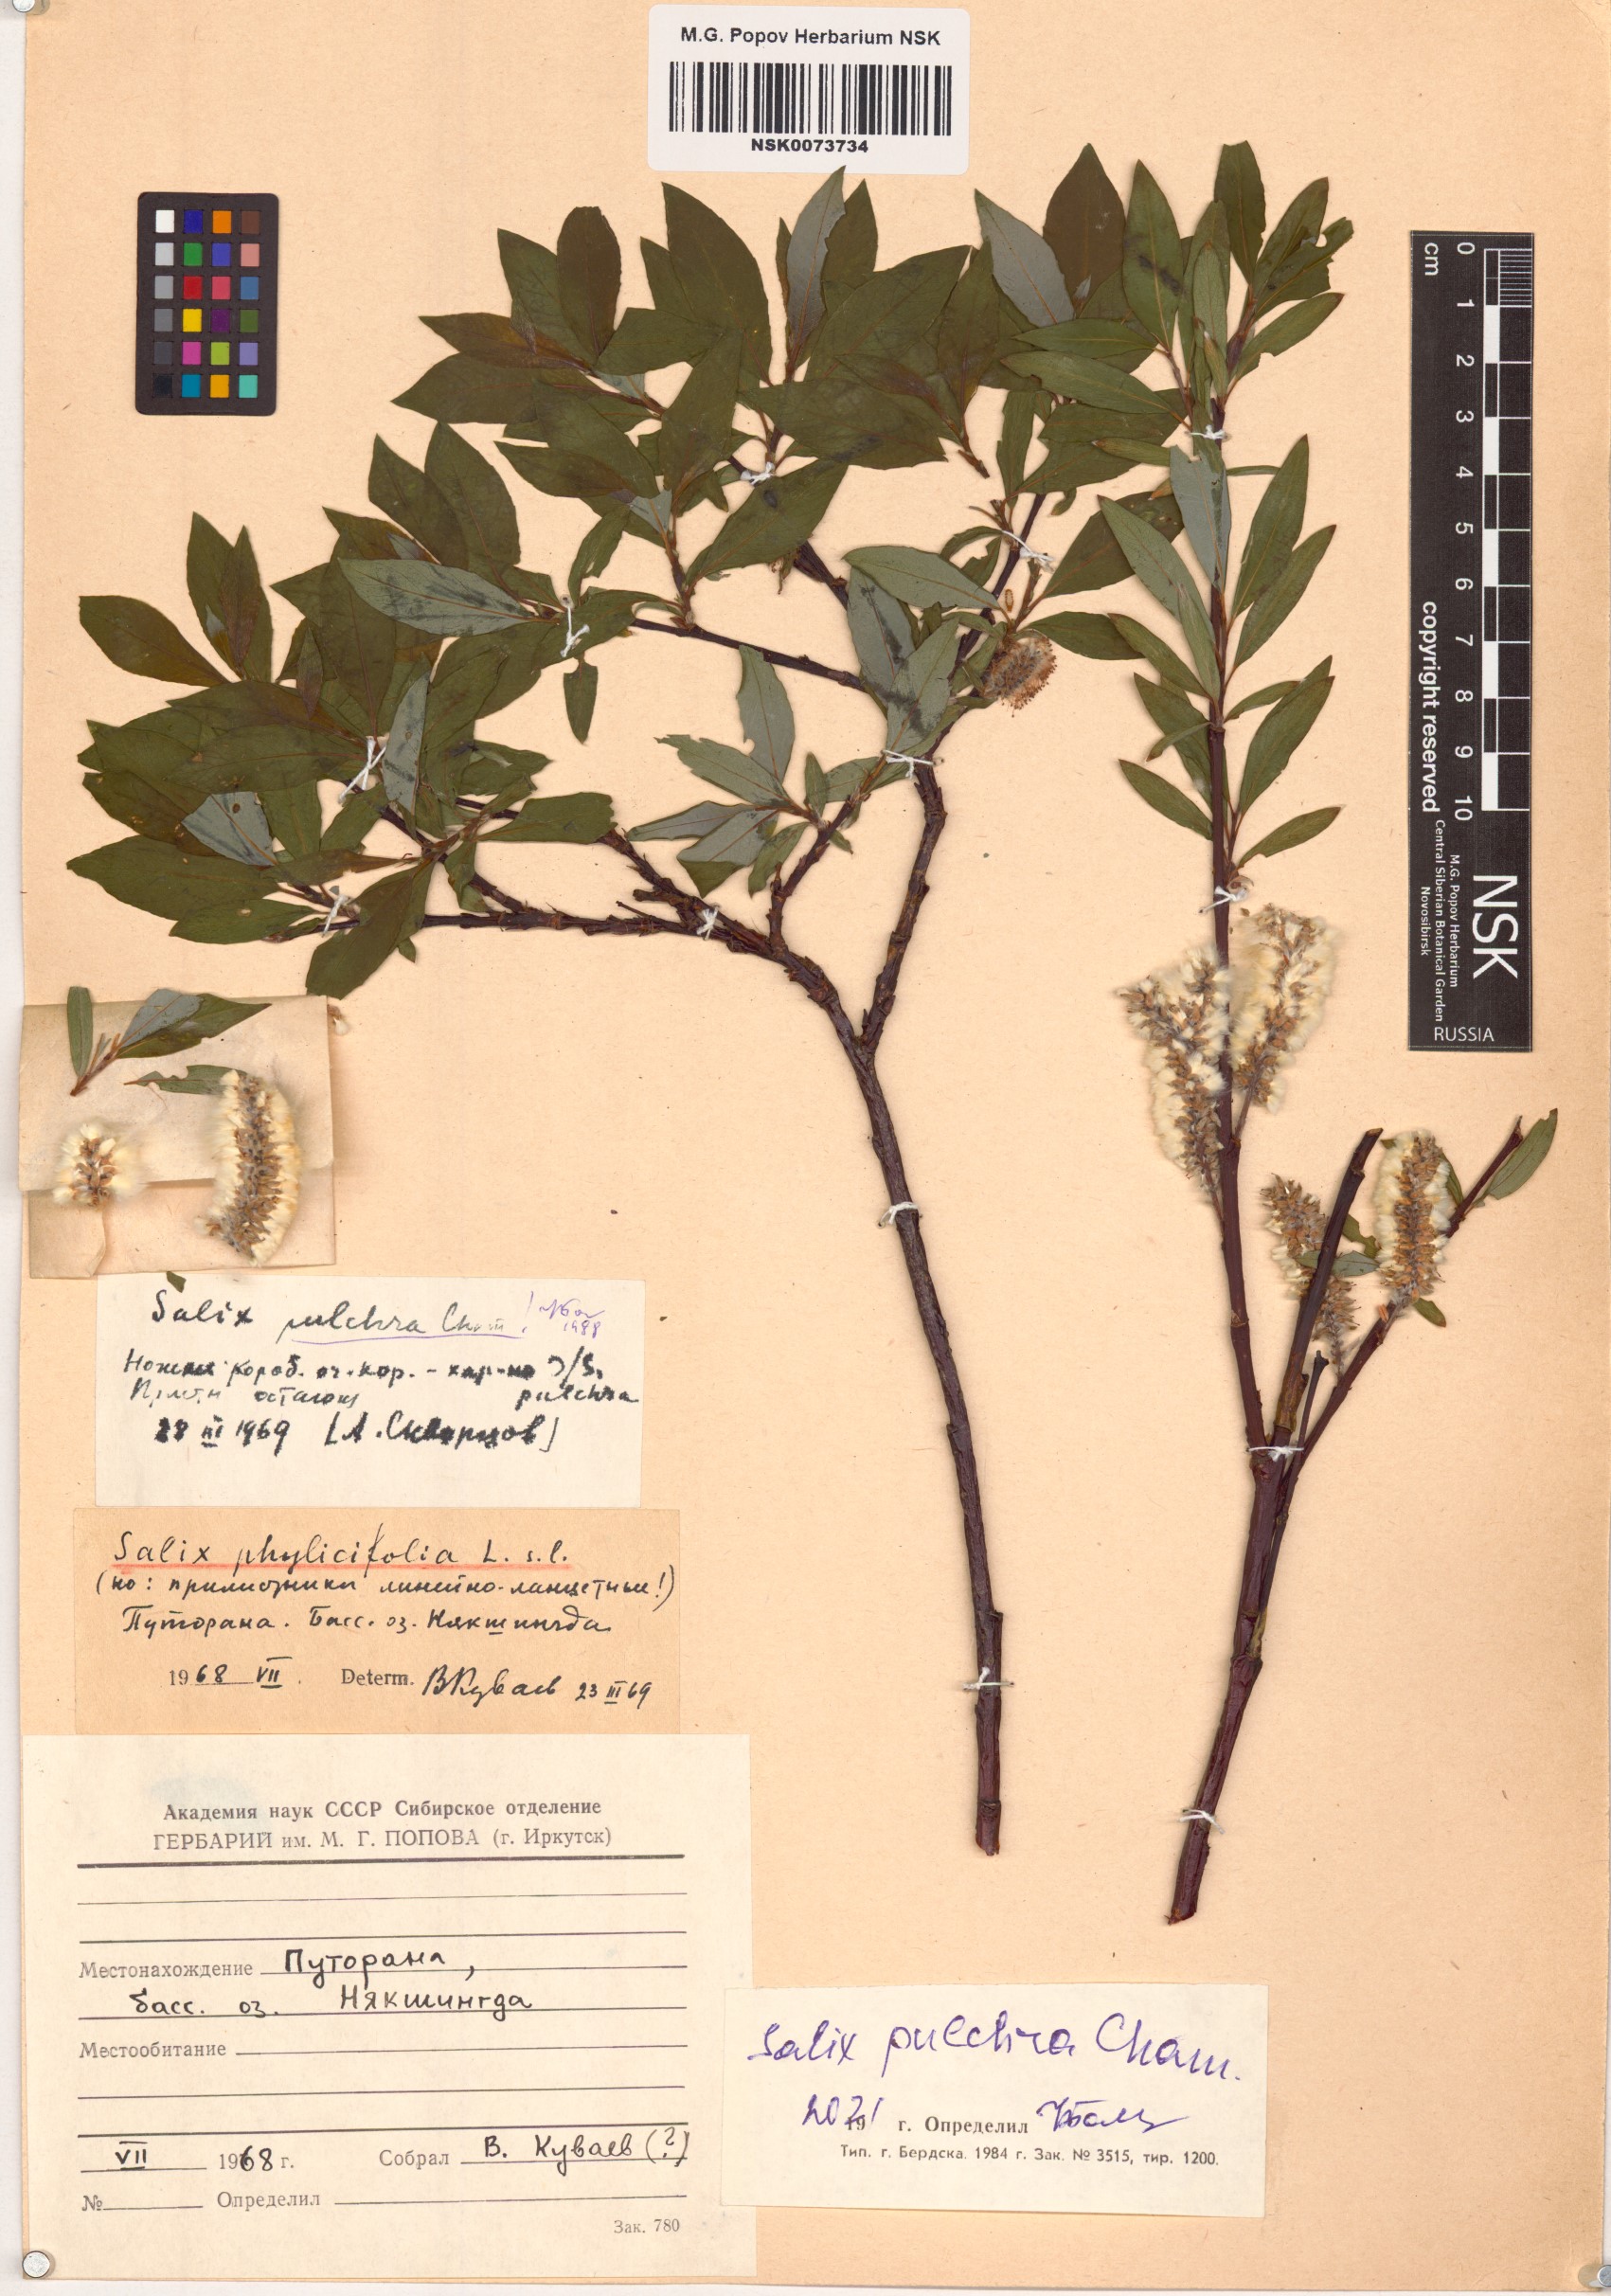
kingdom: Plantae
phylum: Tracheophyta
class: Magnoliopsida
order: Malpighiales
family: Salicaceae
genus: Salix
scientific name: Salix pulchra
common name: Diamond-leaved willow
